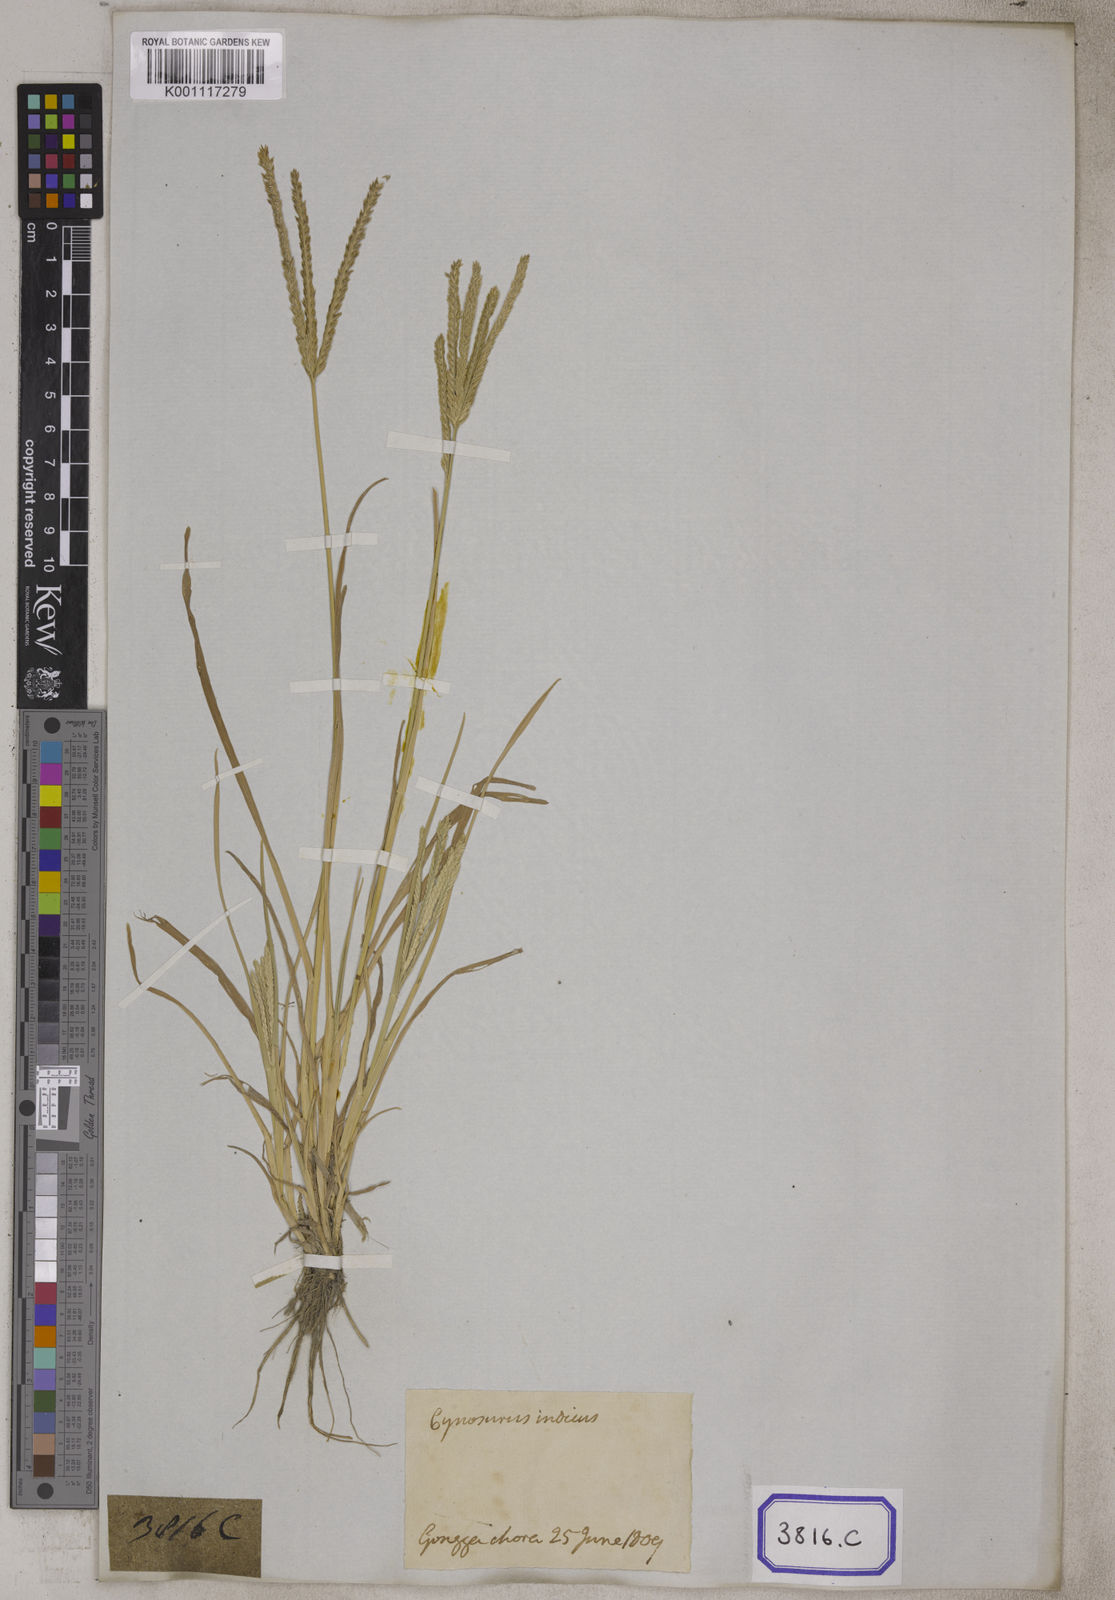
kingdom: Plantae
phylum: Tracheophyta
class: Liliopsida
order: Poales
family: Poaceae
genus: Eleusine
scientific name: Eleusine
